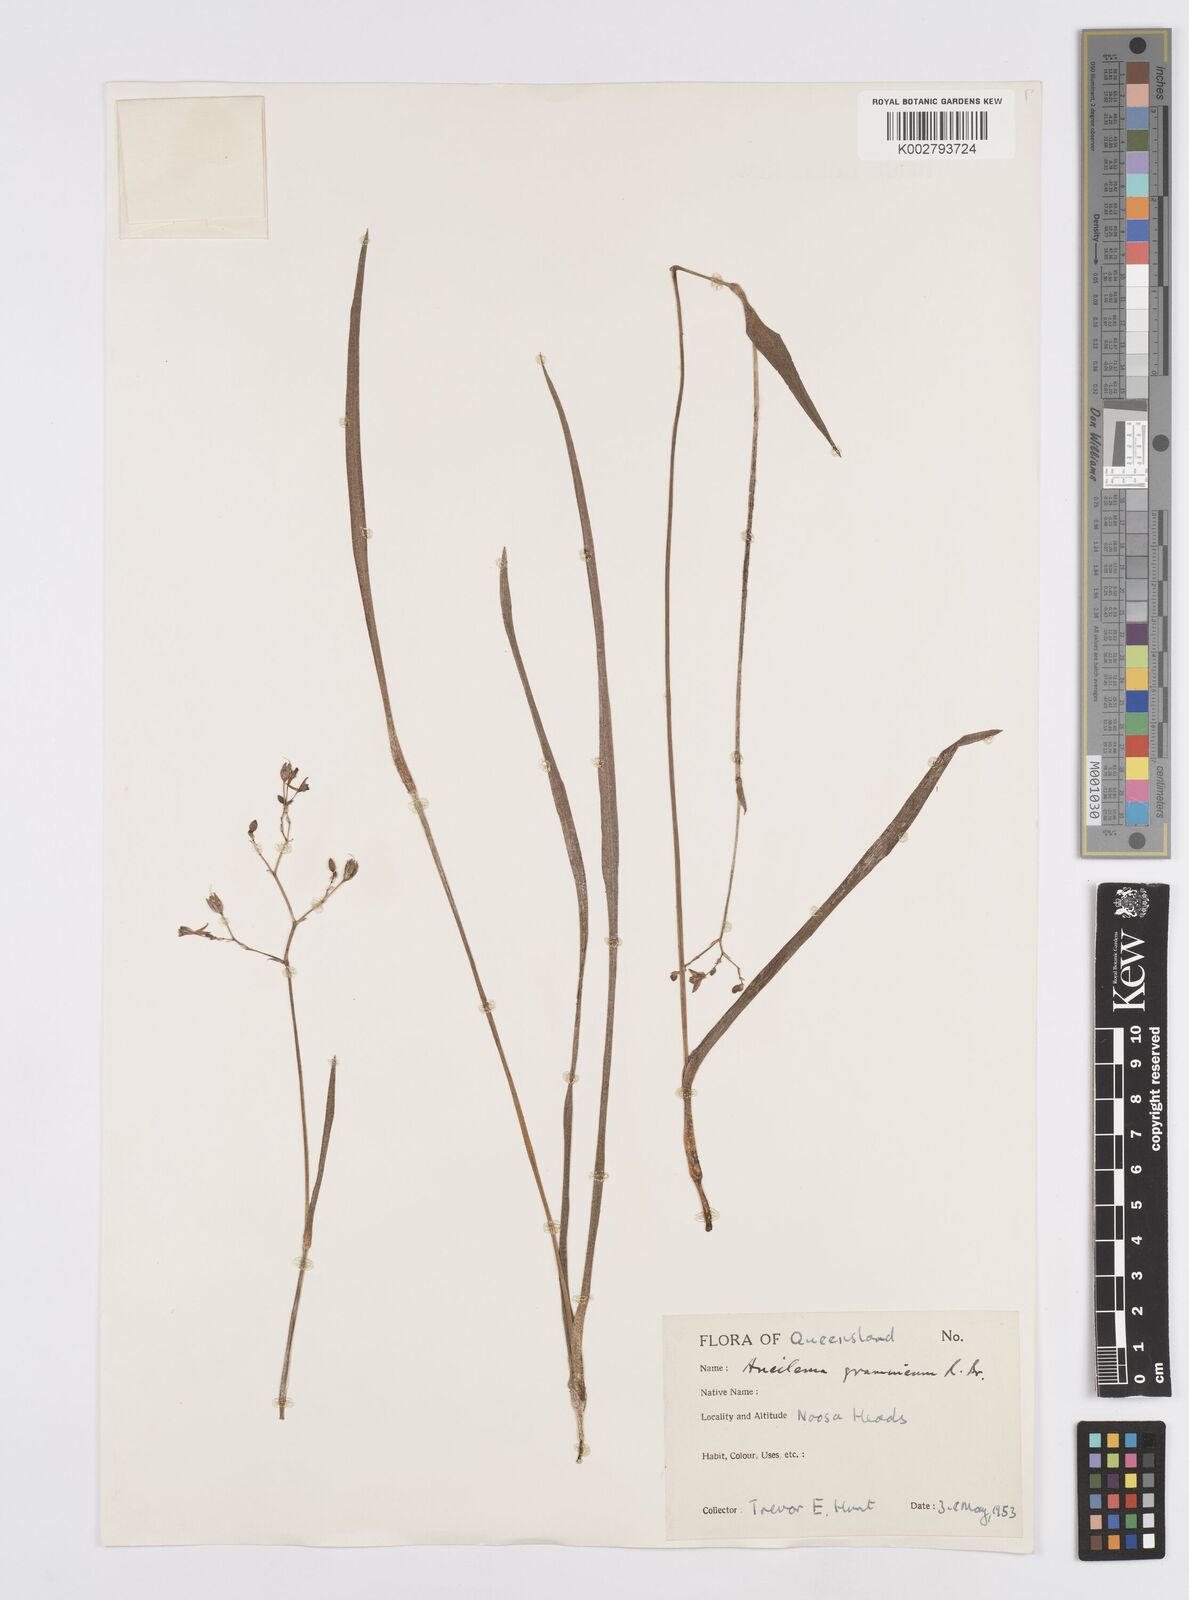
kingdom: Plantae
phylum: Tracheophyta
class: Liliopsida
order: Commelinales
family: Commelinaceae
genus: Murdannia
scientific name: Murdannia graminea
